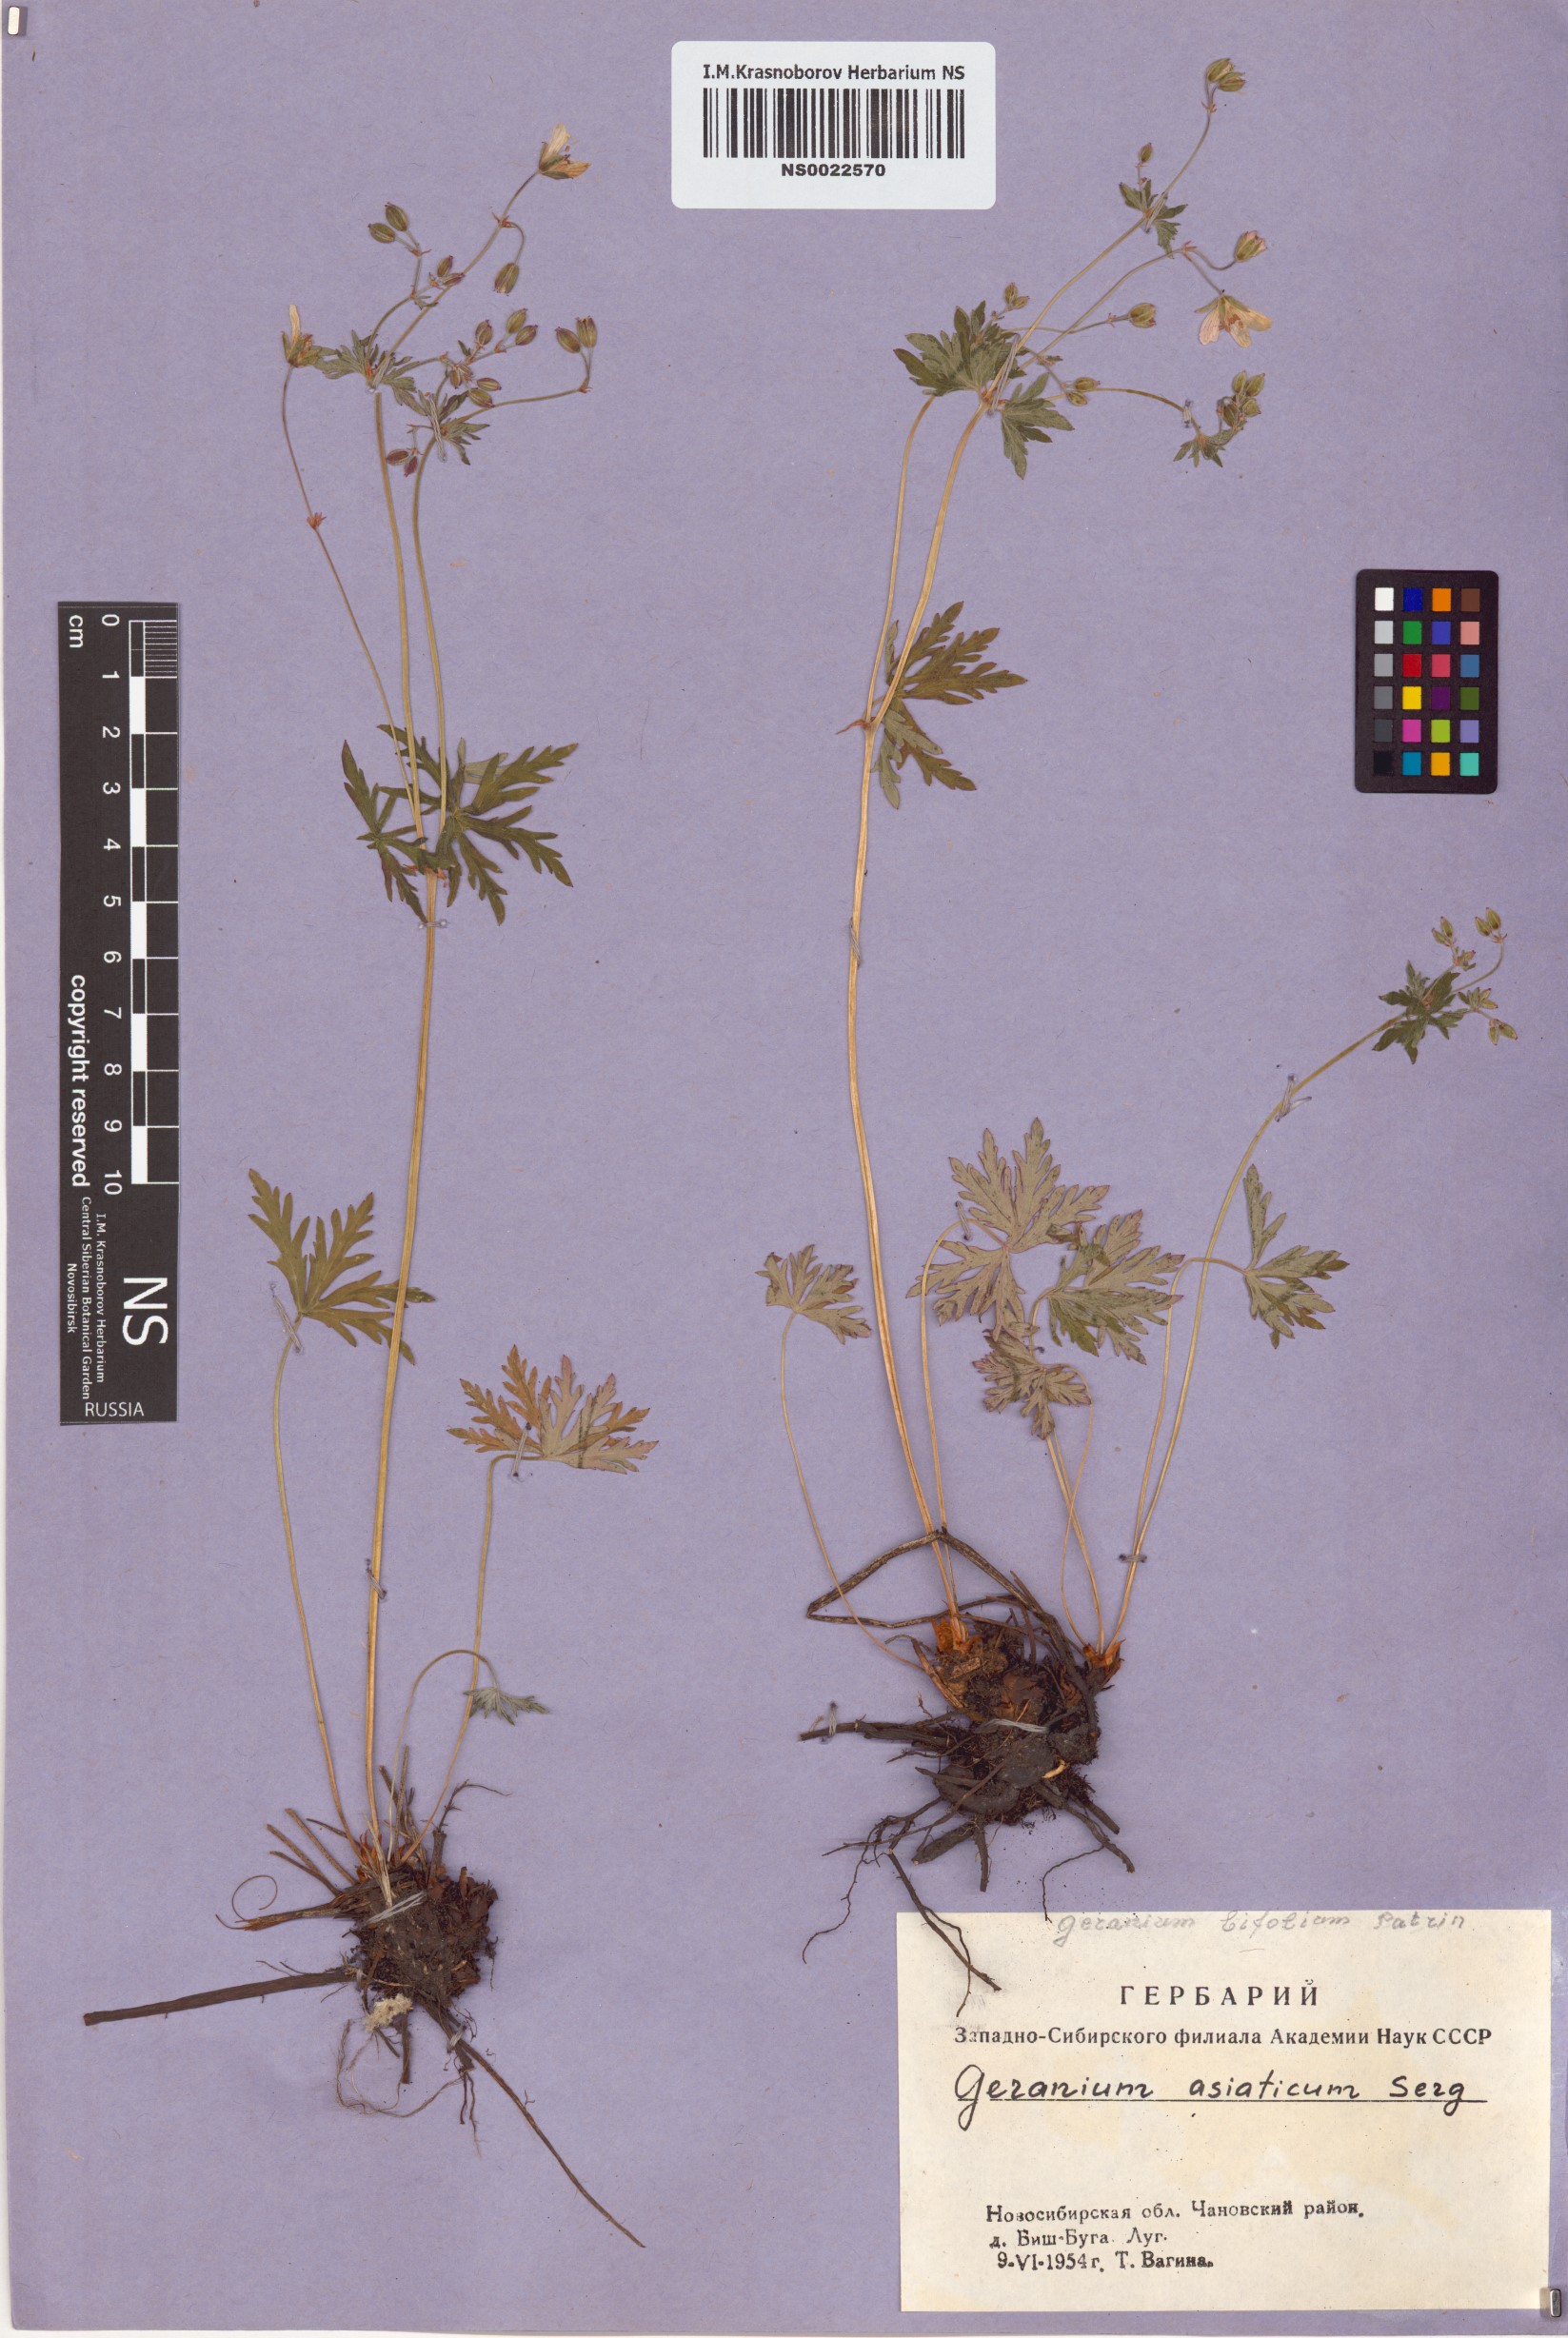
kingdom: Plantae
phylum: Tracheophyta
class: Magnoliopsida
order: Geraniales
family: Geraniaceae
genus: Geranium
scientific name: Geranium pseudosibiricum
